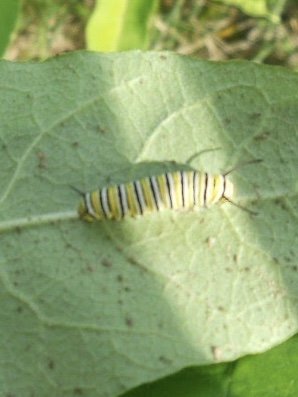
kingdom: Animalia
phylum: Arthropoda
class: Insecta
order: Lepidoptera
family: Nymphalidae
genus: Danaus
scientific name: Danaus plexippus
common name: Monarch
